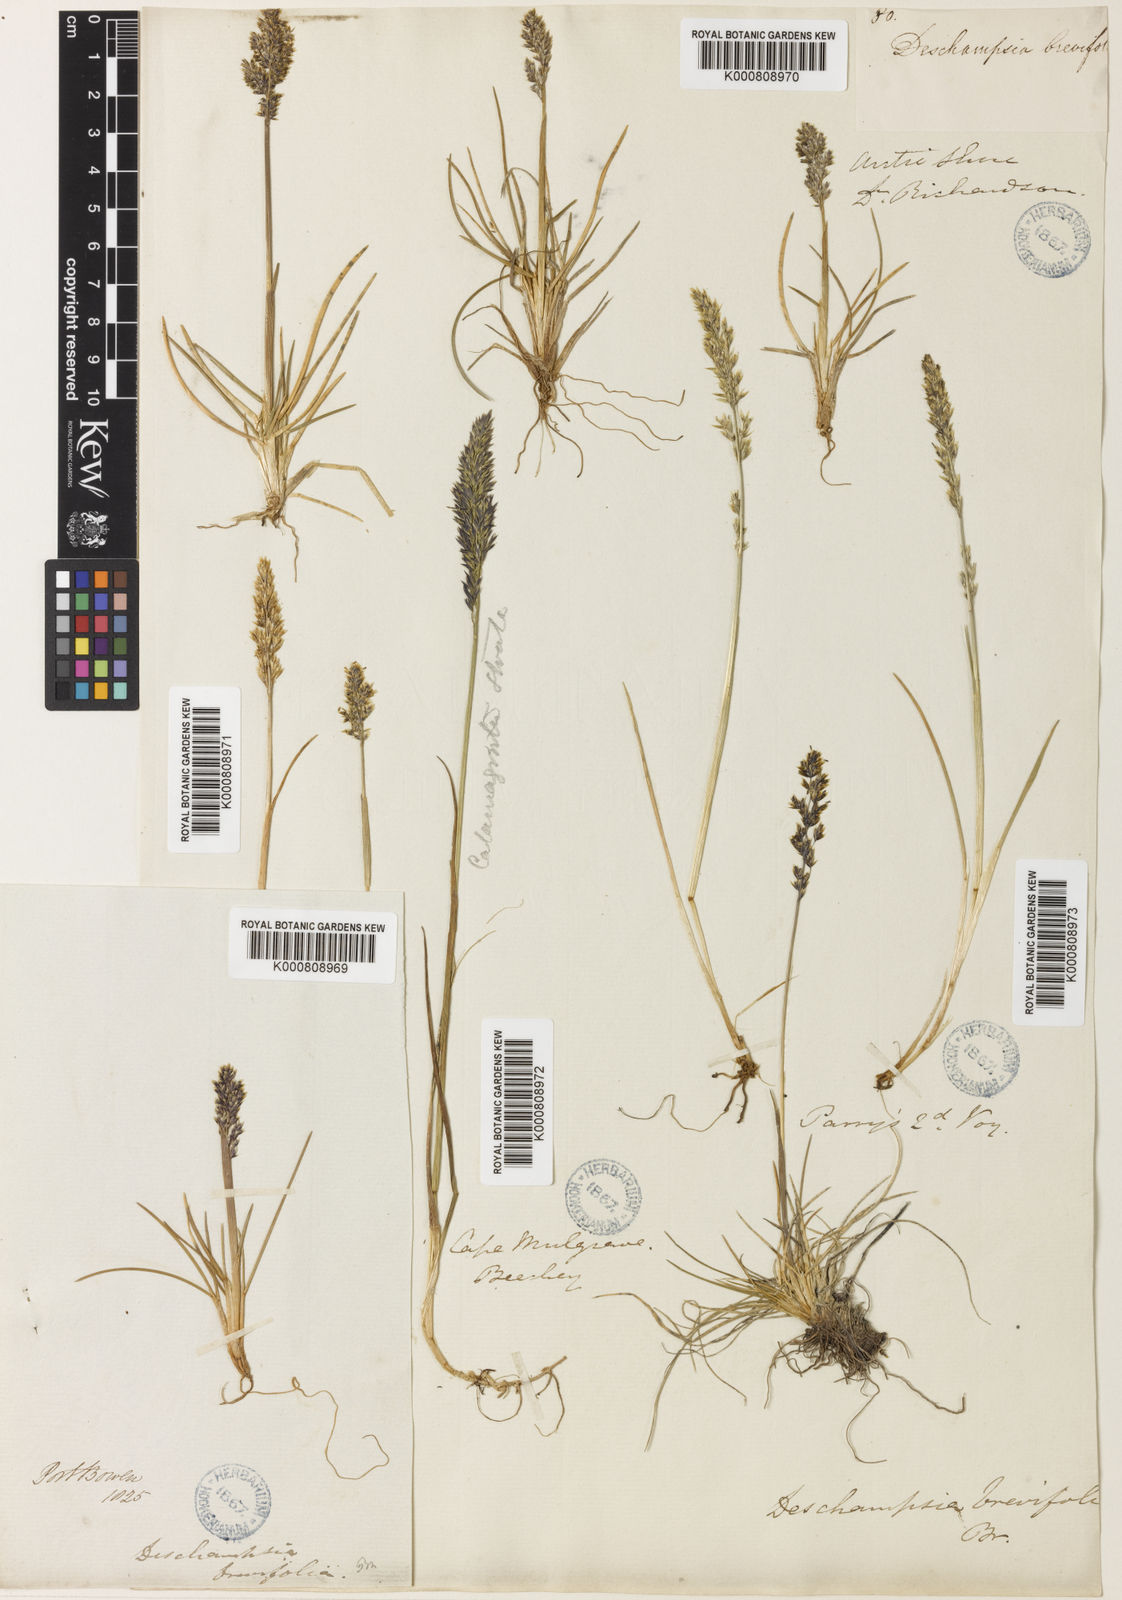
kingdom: Plantae
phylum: Tracheophyta
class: Liliopsida
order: Poales
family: Poaceae
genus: Deschampsia
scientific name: Deschampsia
